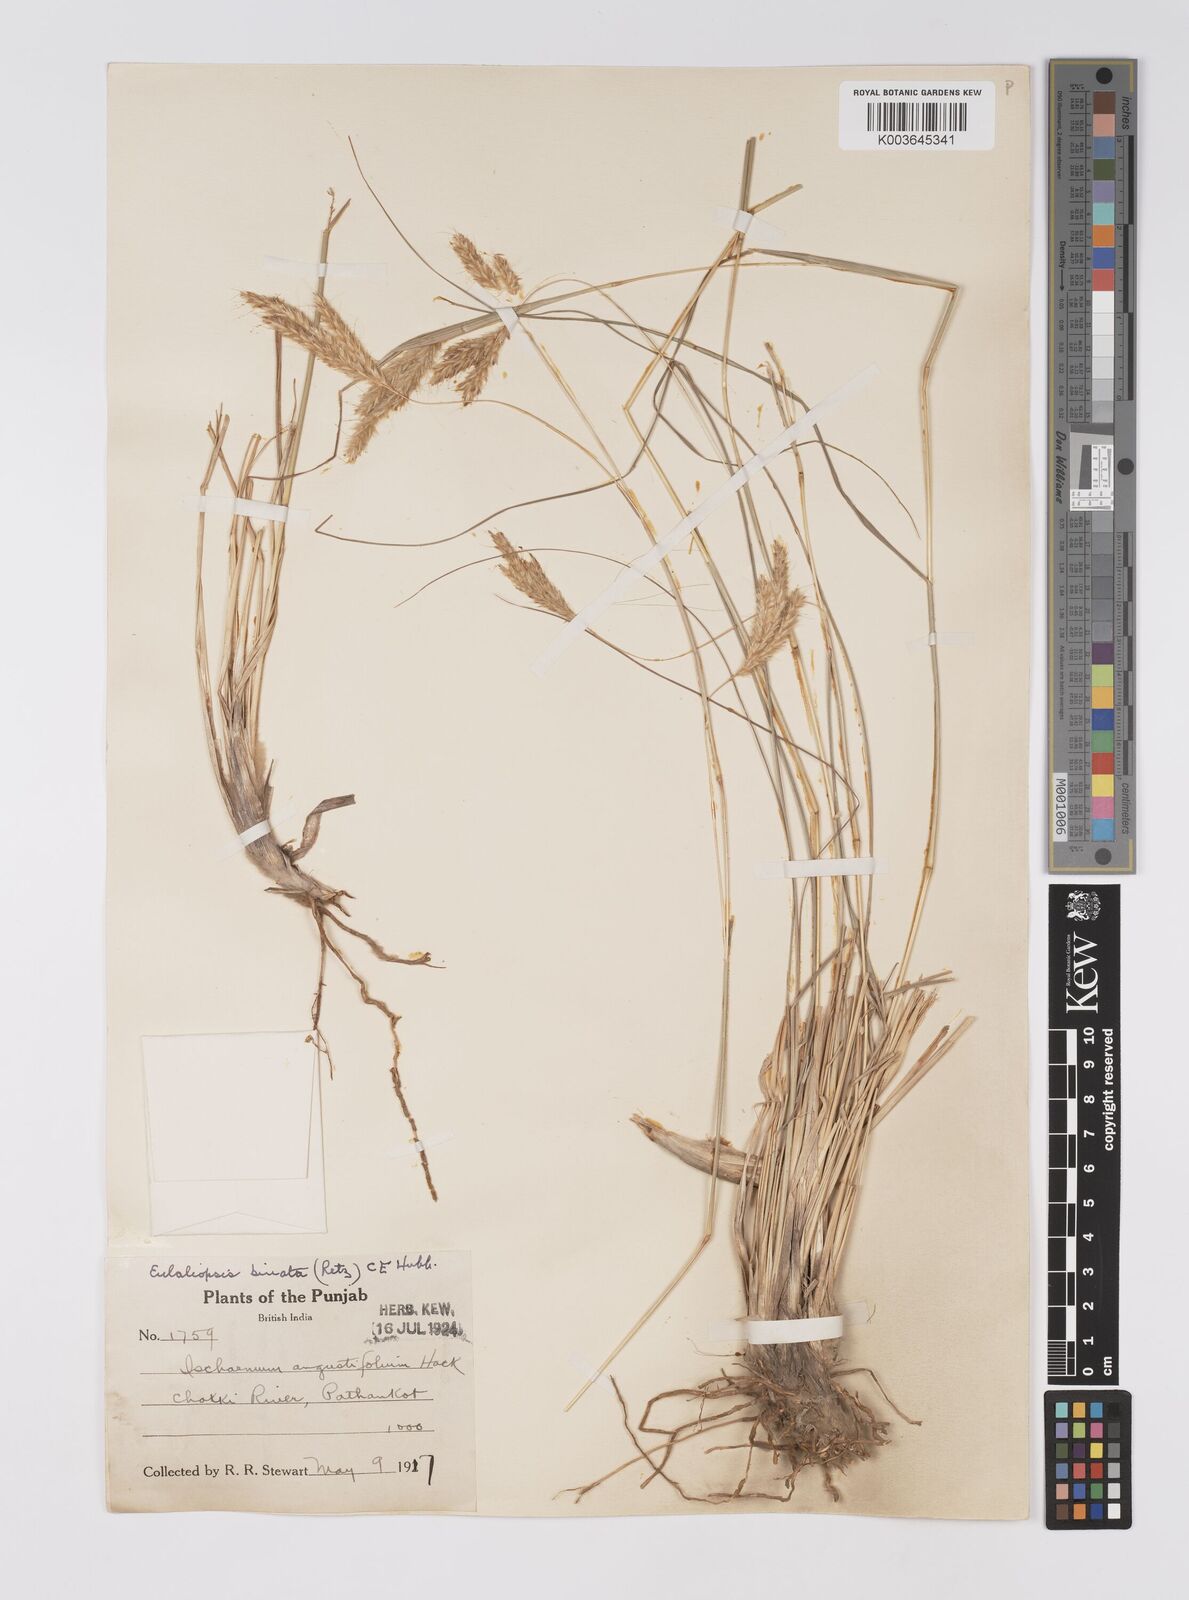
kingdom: Plantae
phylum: Tracheophyta
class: Liliopsida
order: Poales
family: Poaceae
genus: Eulaliopsis
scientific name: Eulaliopsis binata
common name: Baib grass
